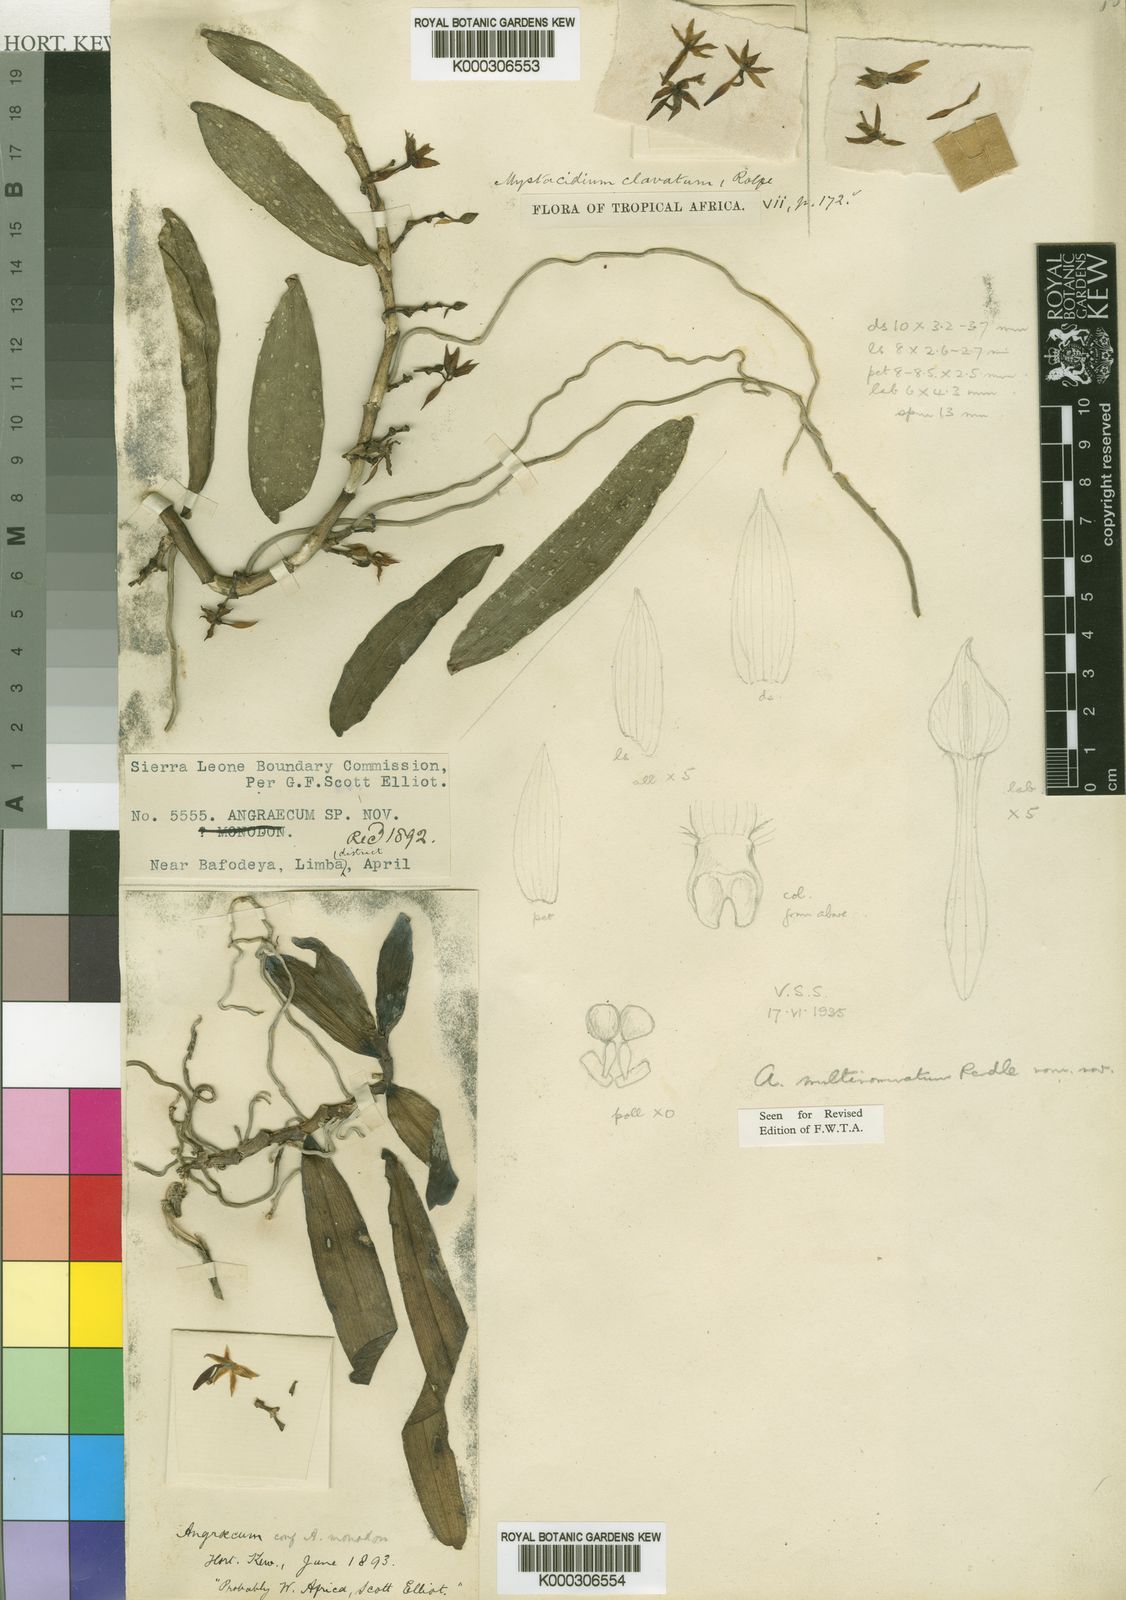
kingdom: Plantae
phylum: Tracheophyta
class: Liliopsida
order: Asparagales
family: Orchidaceae
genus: Angraecum
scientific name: Angraecum multinominatum
